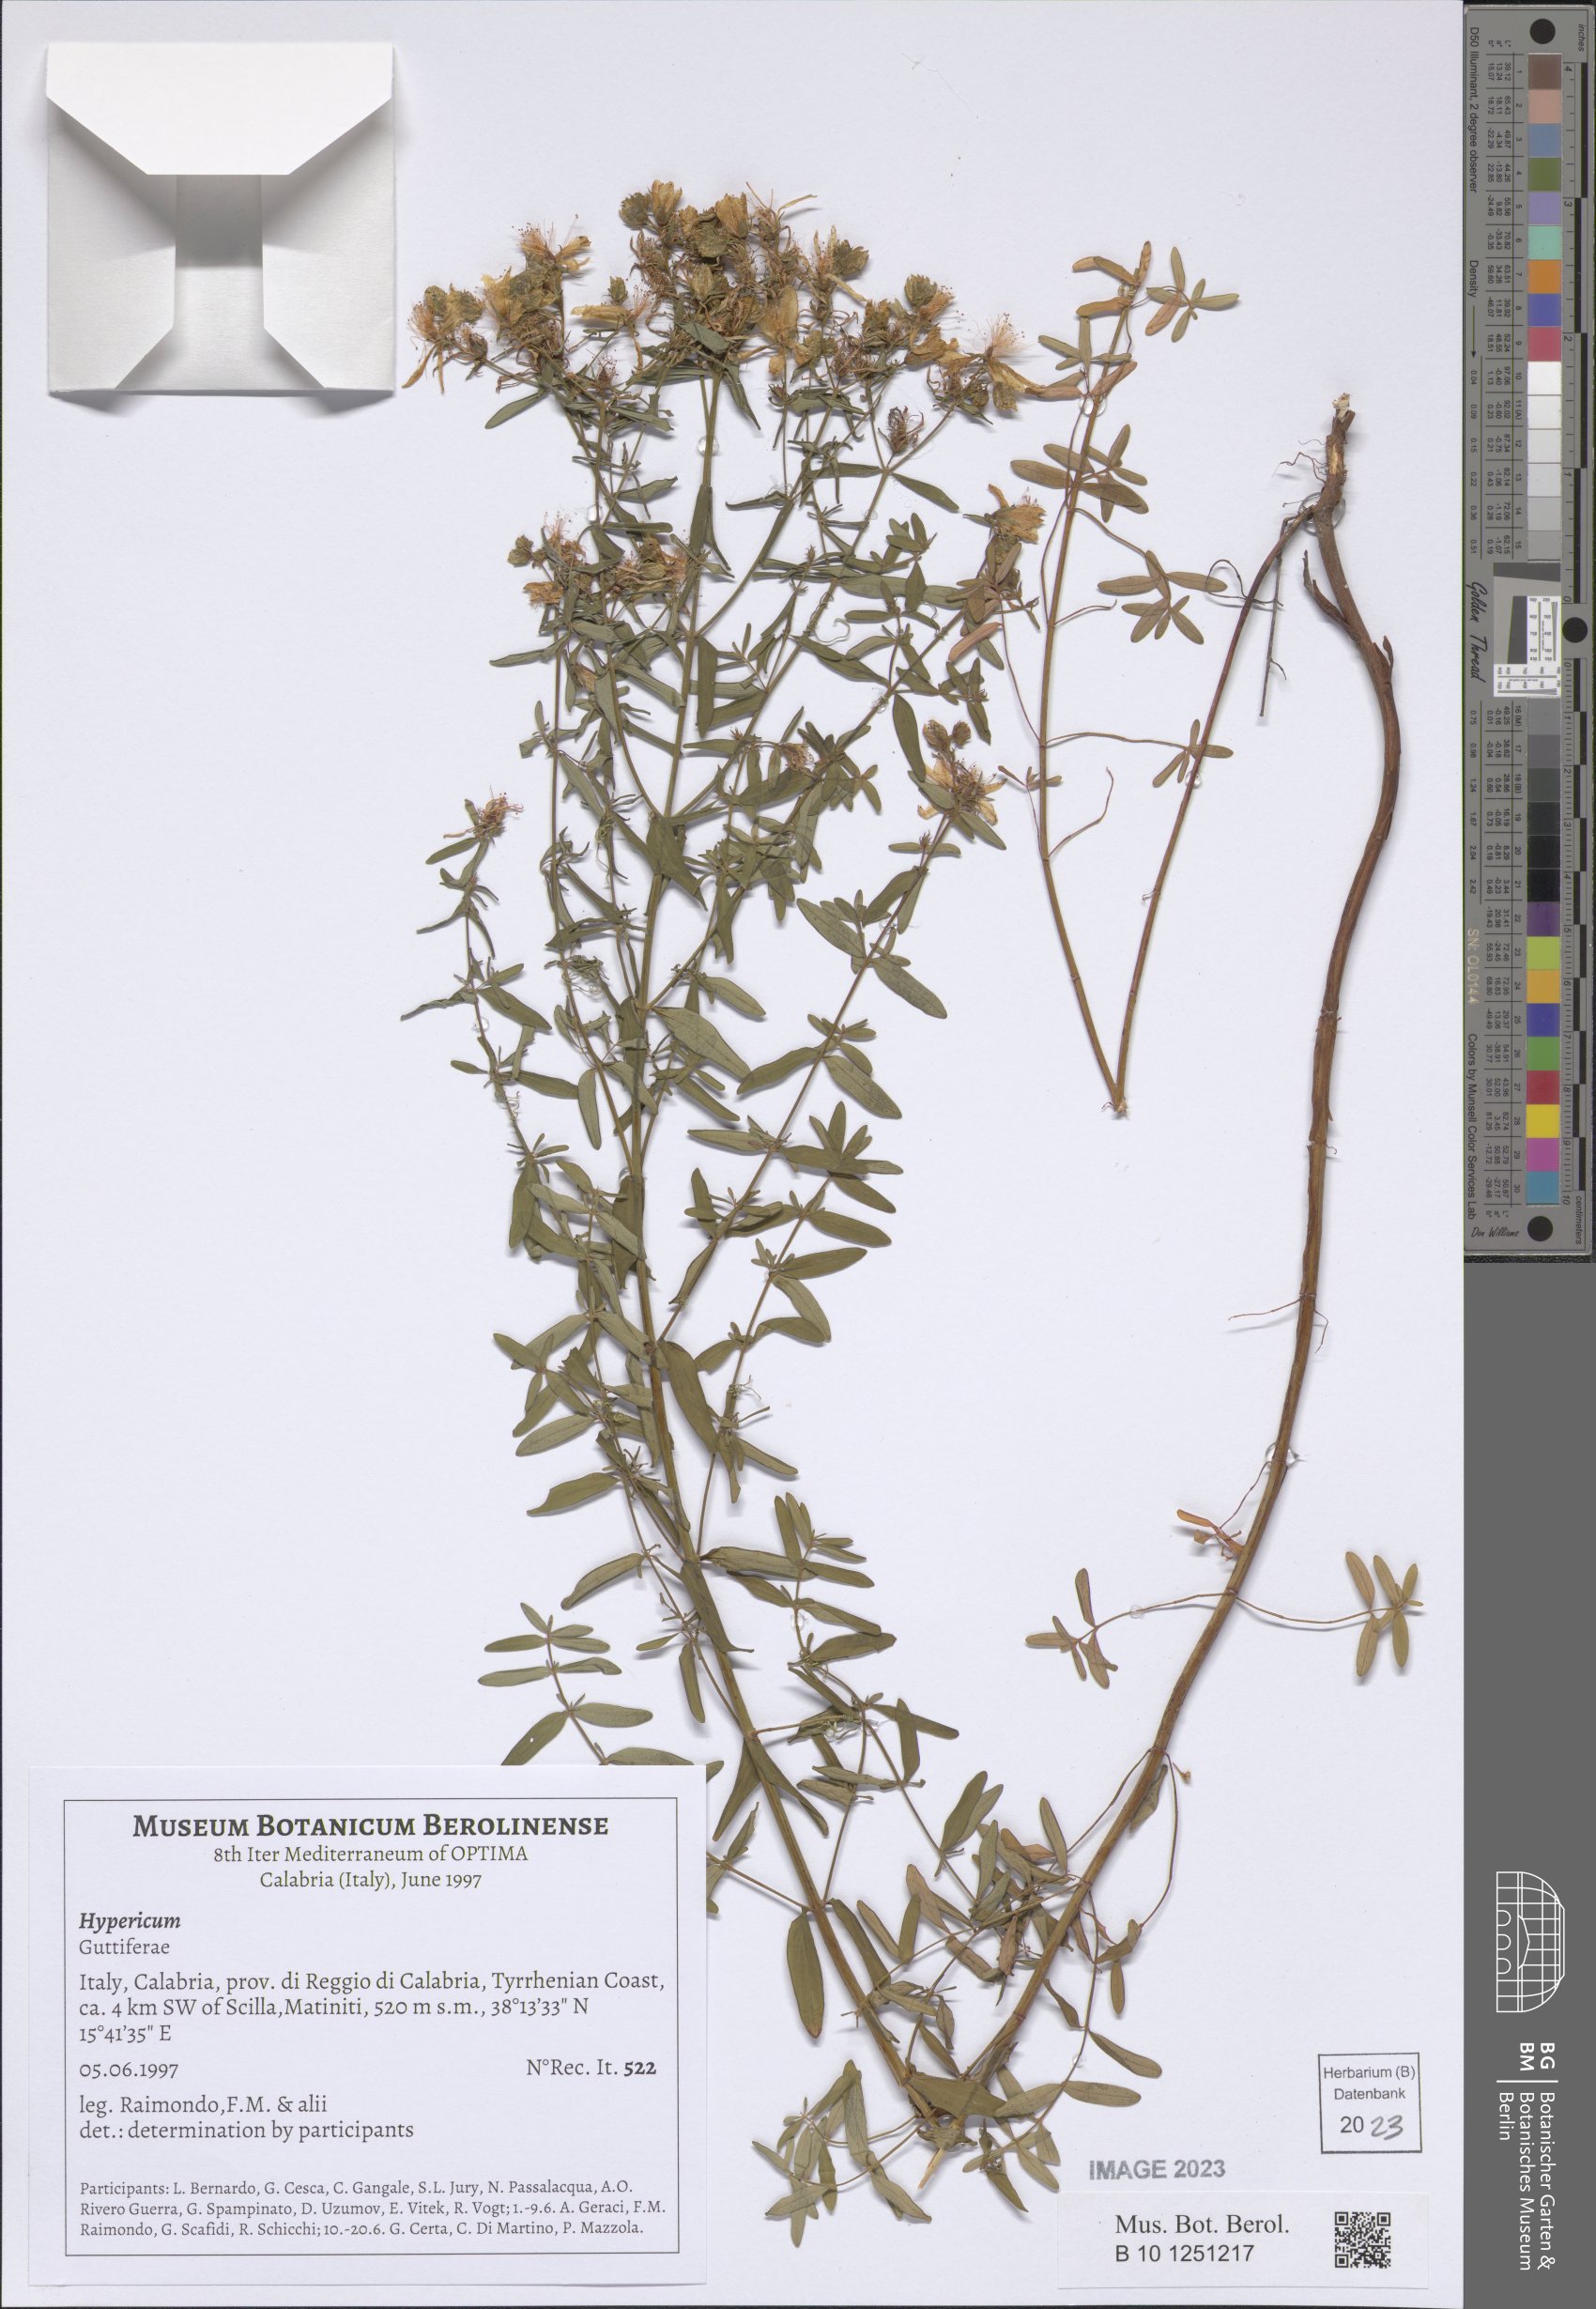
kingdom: Plantae
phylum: Tracheophyta
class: Magnoliopsida
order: Malpighiales
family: Hypericaceae
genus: Hypericum
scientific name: Hypericum
